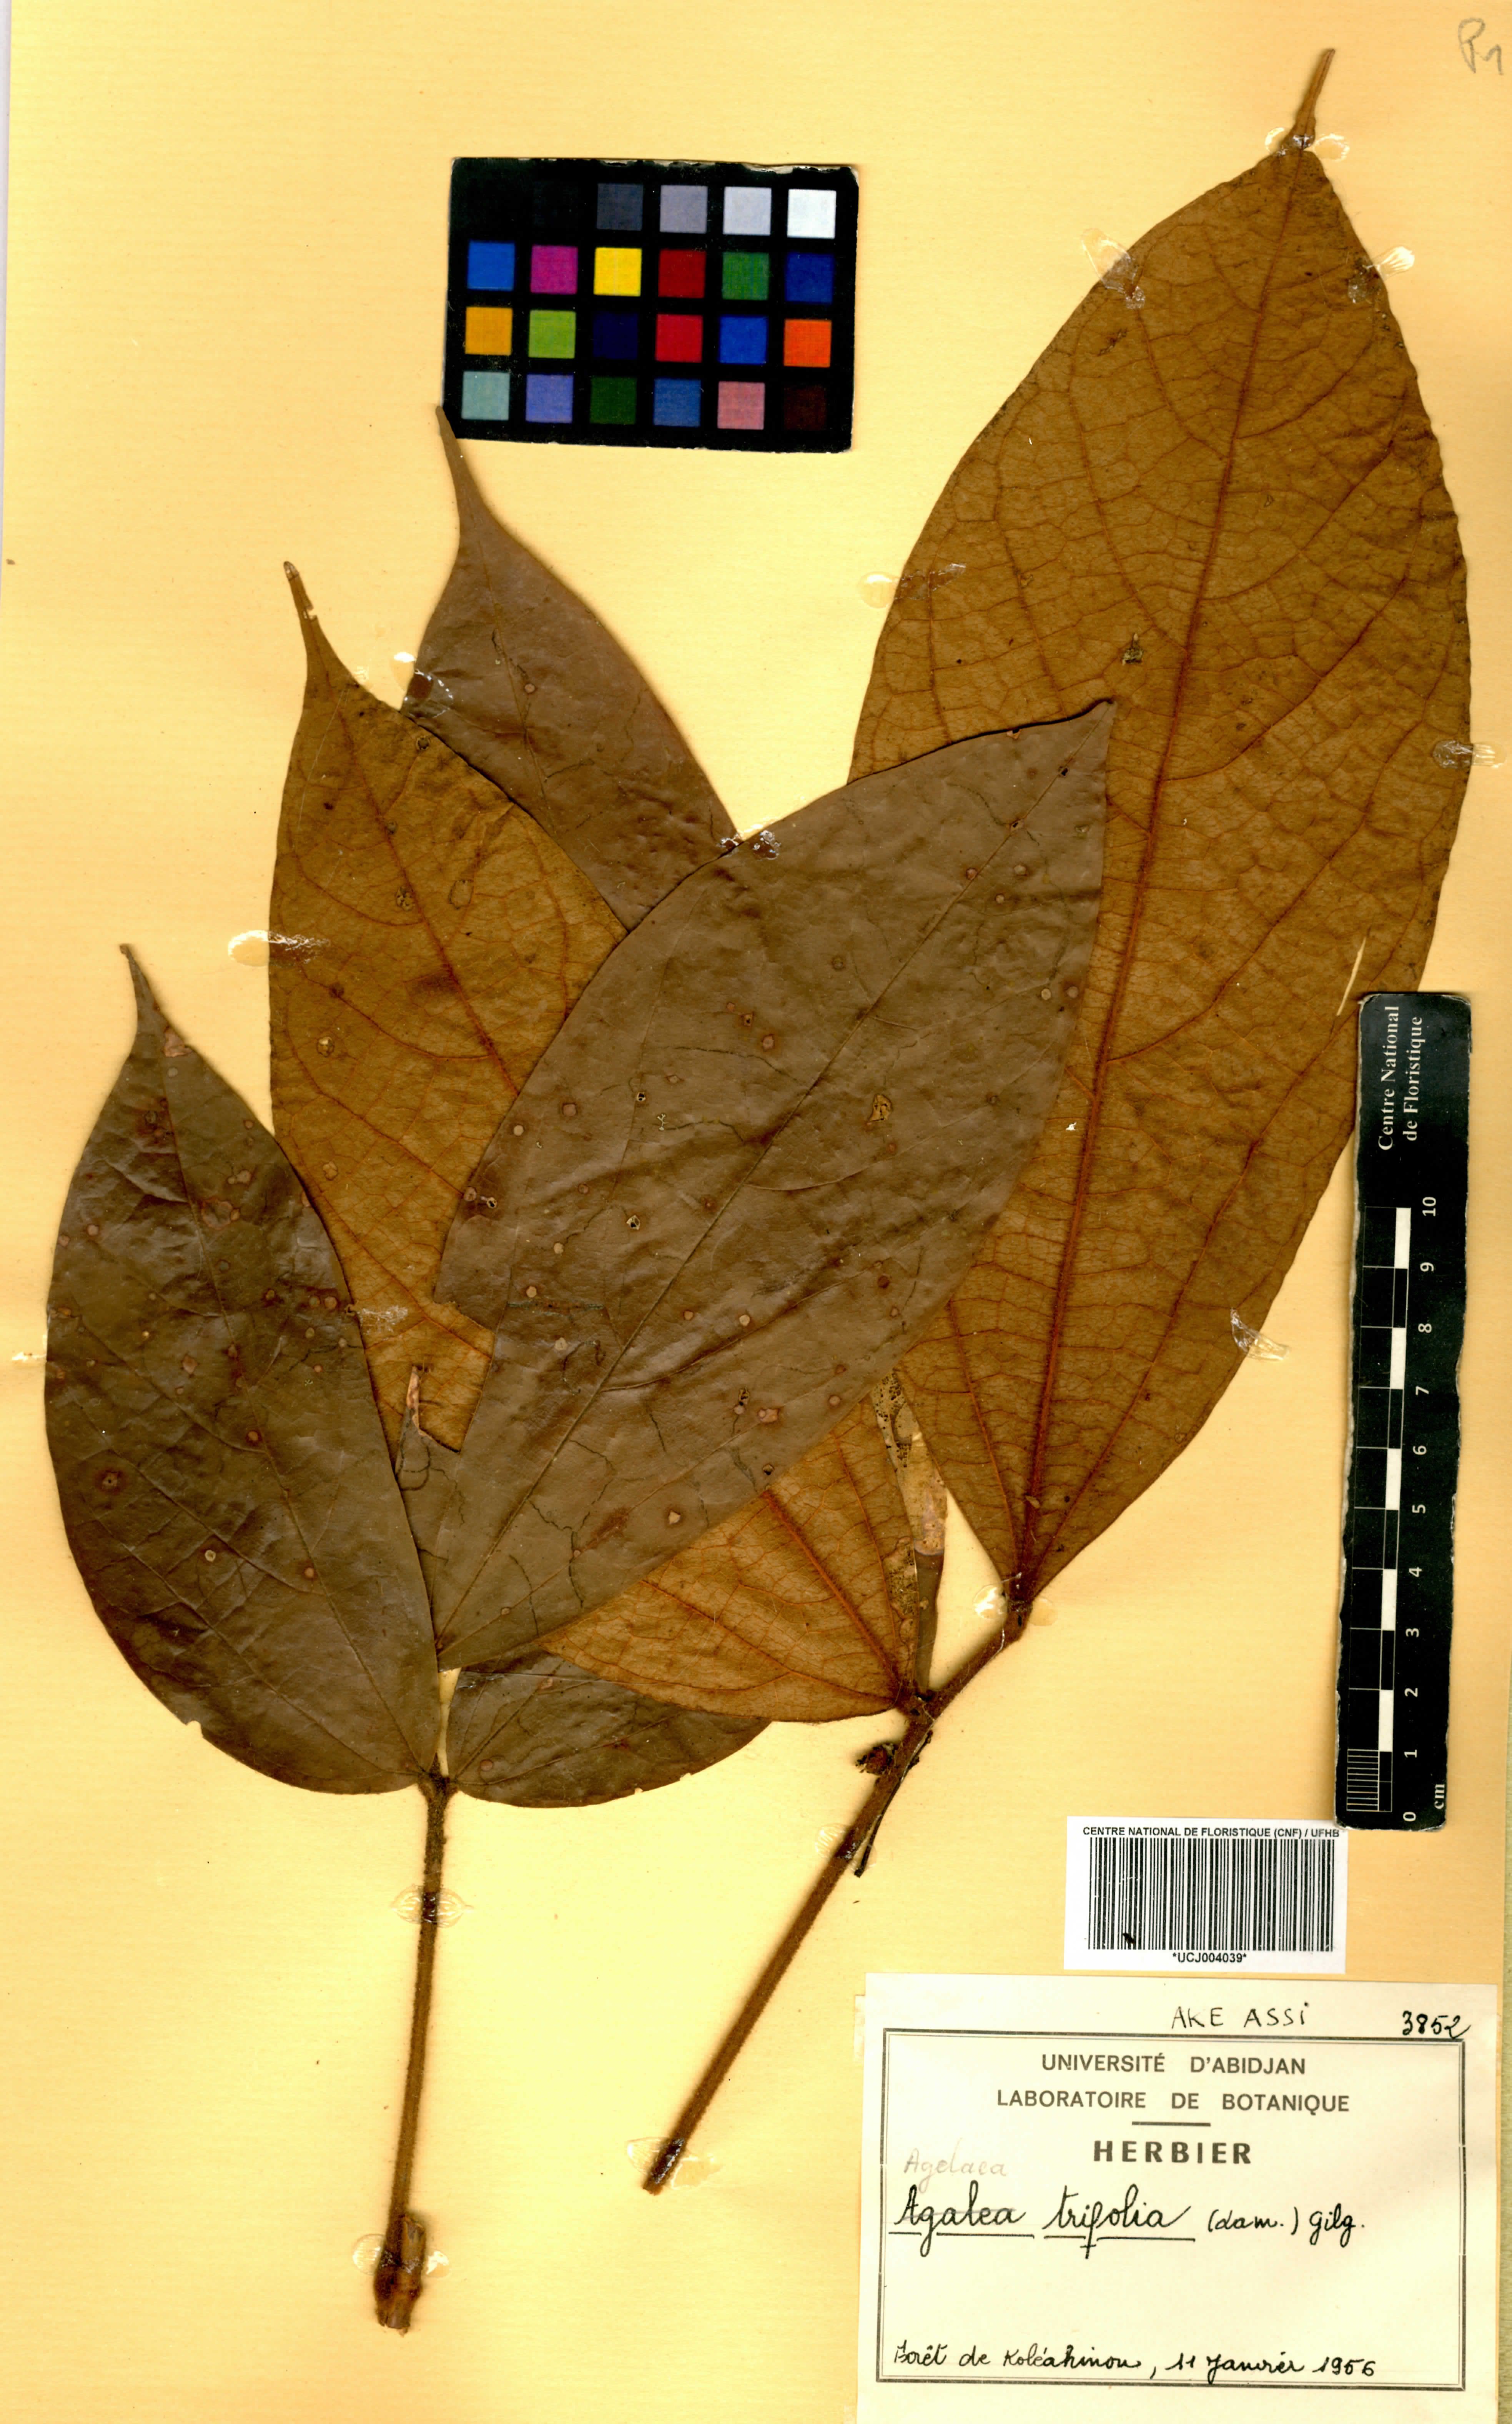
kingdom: Plantae
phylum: Tracheophyta
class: Magnoliopsida
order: Oxalidales
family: Connaraceae
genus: Agelaea
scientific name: Agelaea pentagyna
